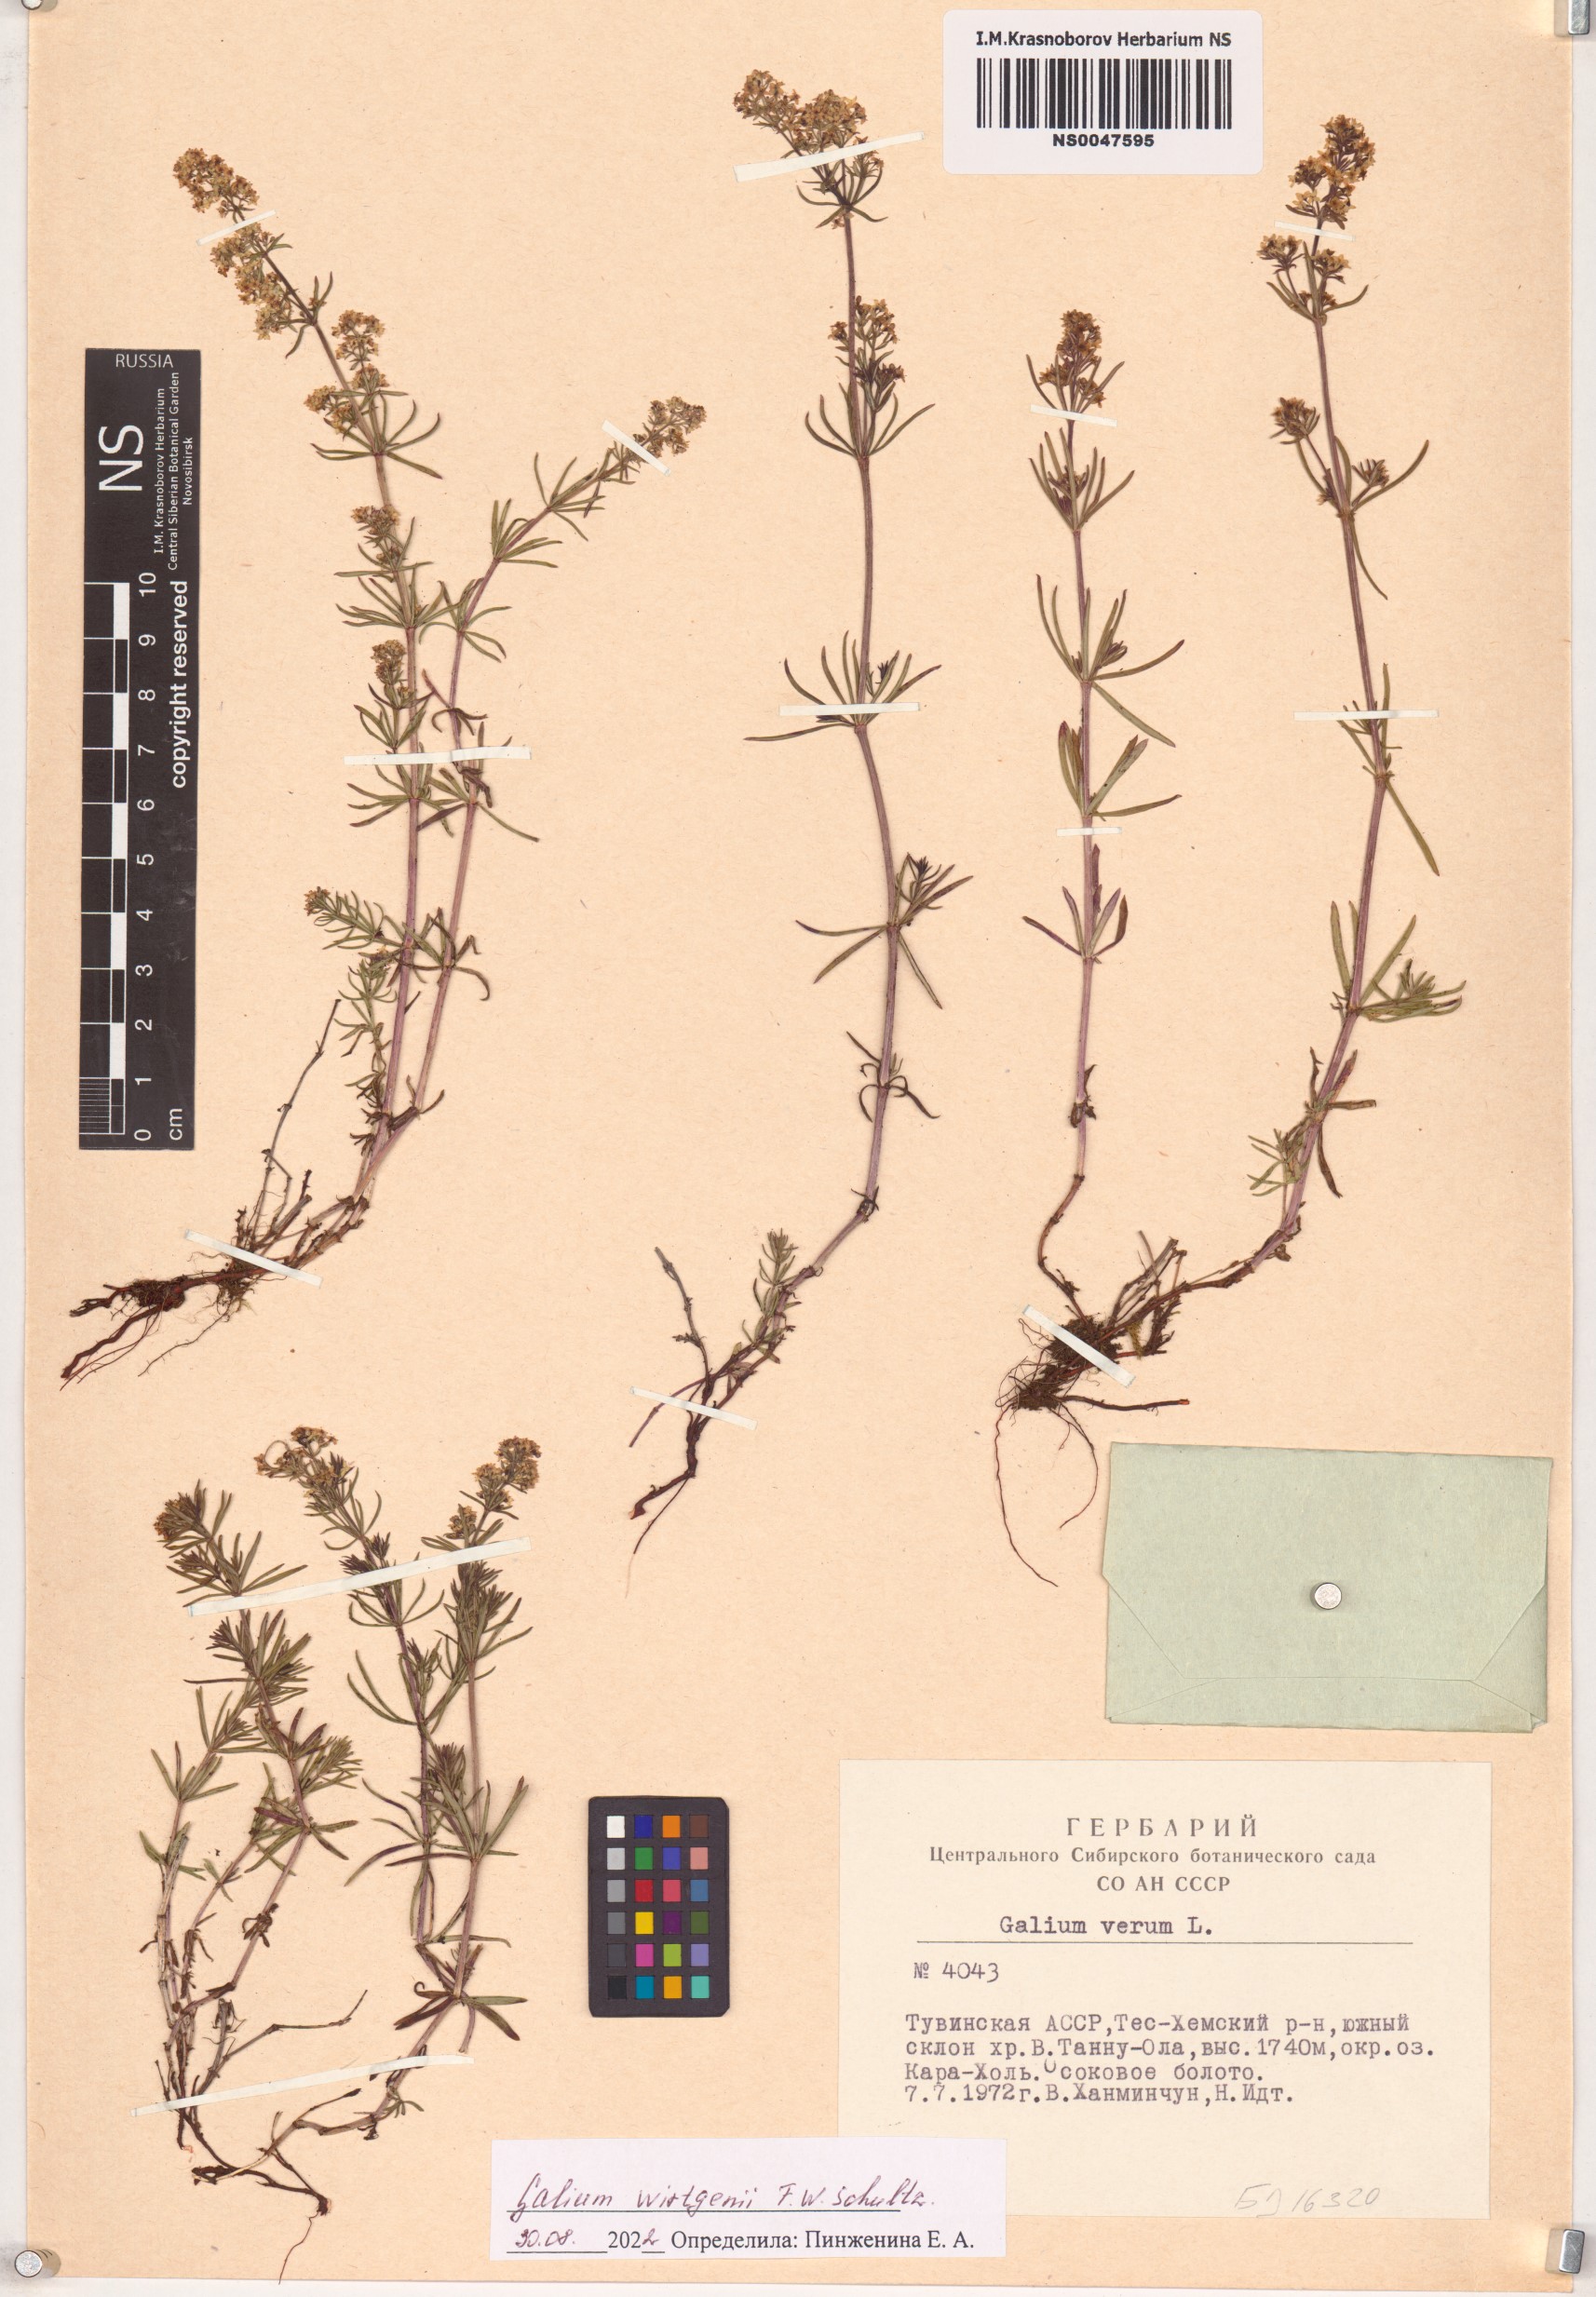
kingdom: Plantae
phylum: Tracheophyta
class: Magnoliopsida
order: Gentianales
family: Rubiaceae
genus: Galium
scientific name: Galium verum
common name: Lady's bedstraw
